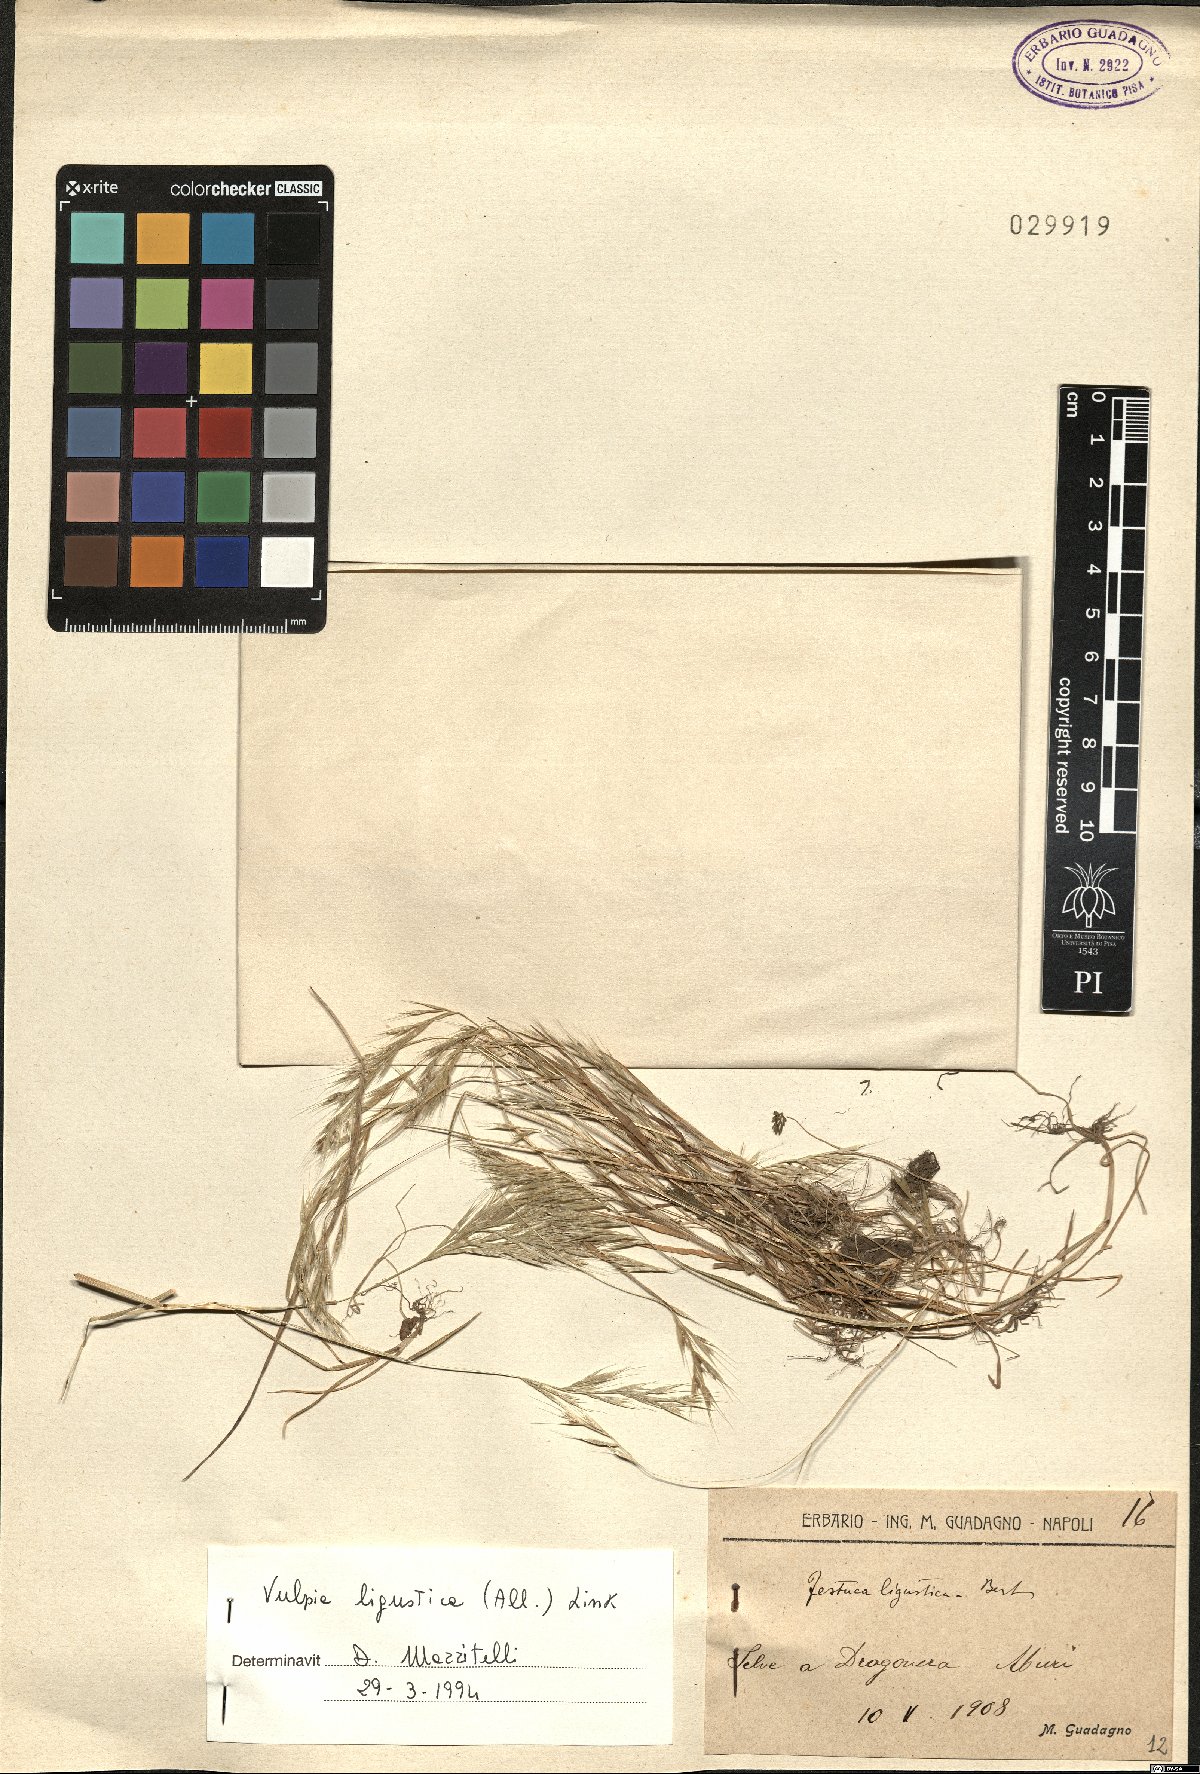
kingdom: Plantae
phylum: Tracheophyta
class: Liliopsida
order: Poales
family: Poaceae
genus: Festuca
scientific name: Festuca ligustica
